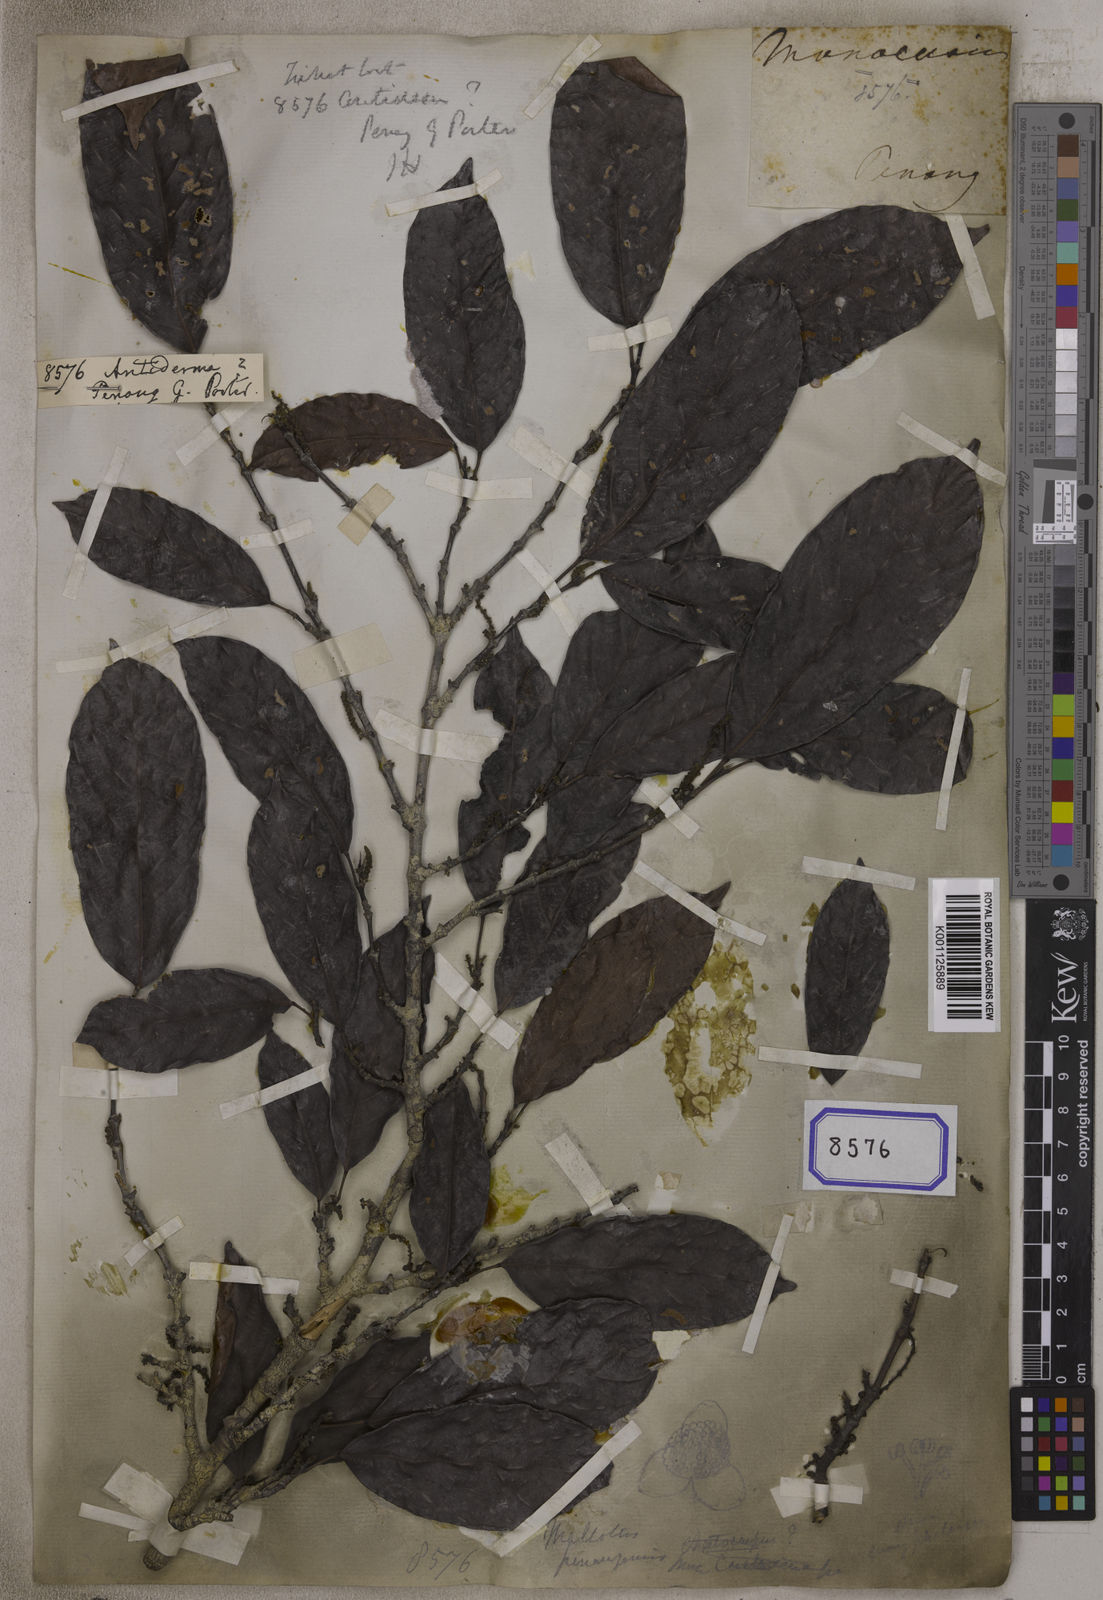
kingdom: Plantae
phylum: Tracheophyta
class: Magnoliopsida
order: Malpighiales
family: Phyllanthaceae
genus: Antidesma
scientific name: Antidesma
